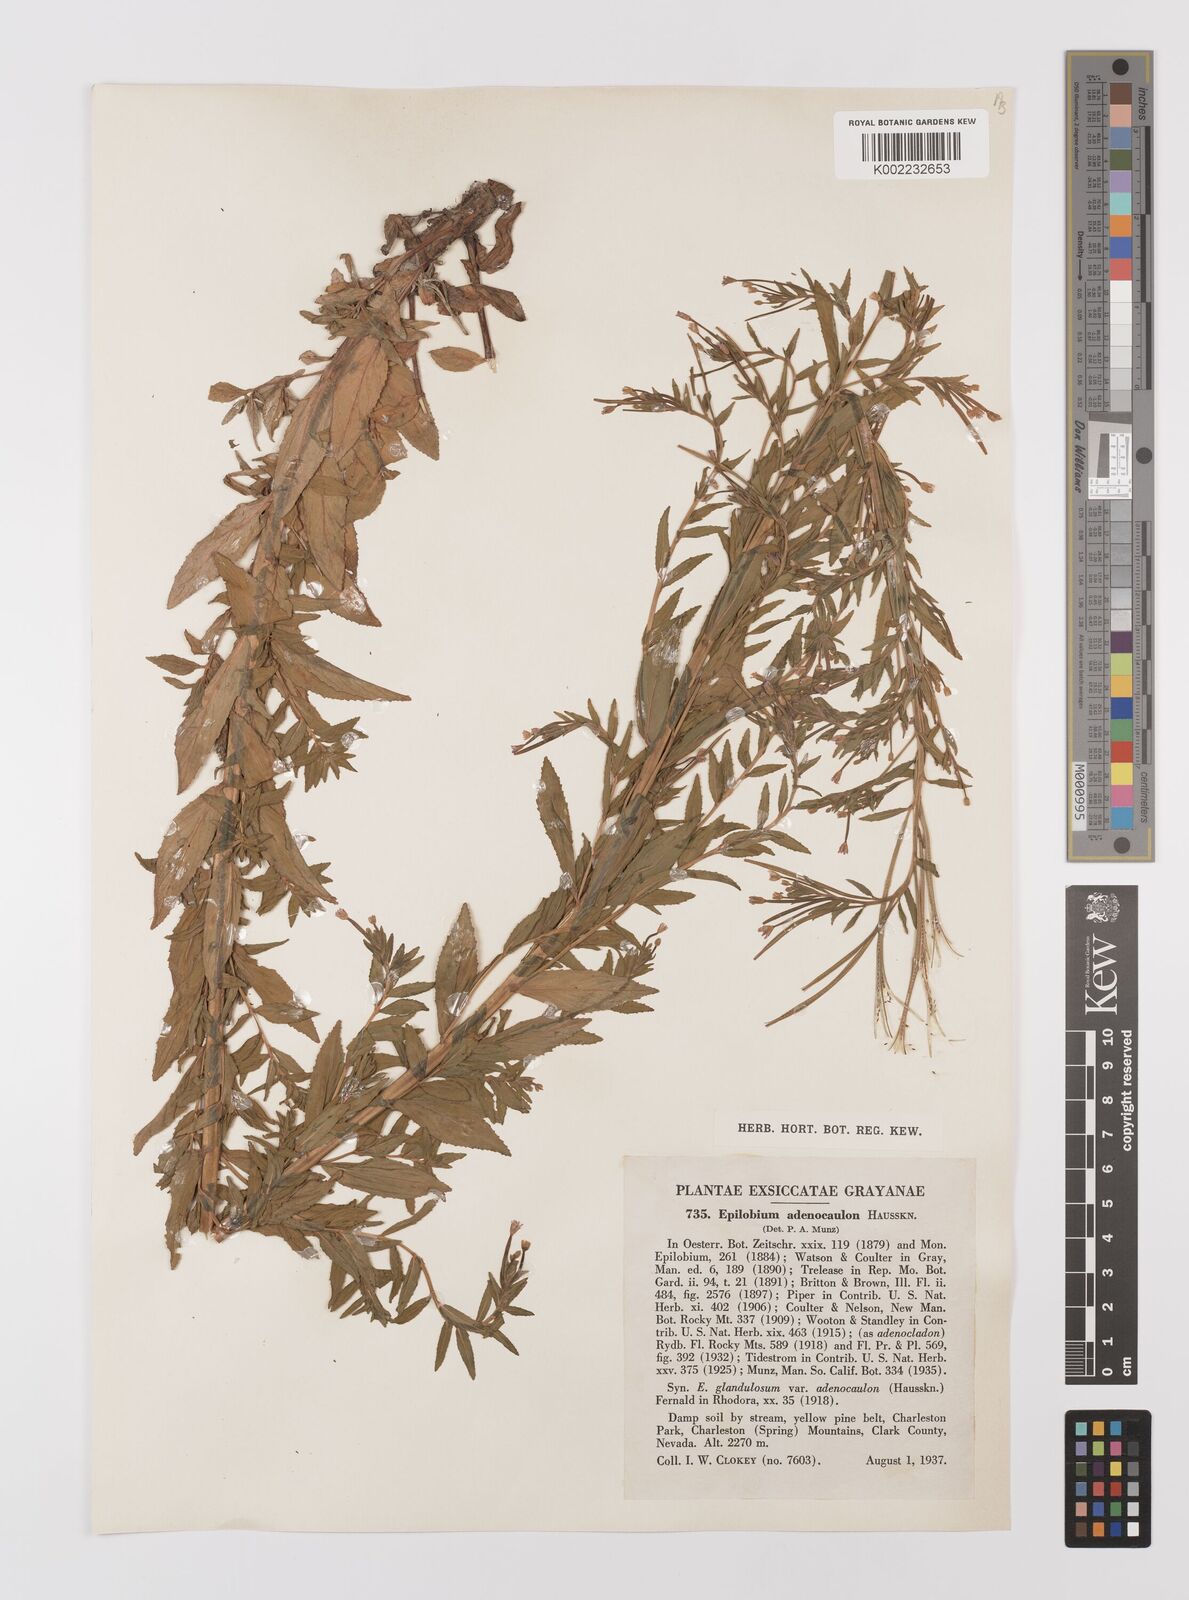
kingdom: Plantae
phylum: Tracheophyta
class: Magnoliopsida
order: Myrtales
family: Onagraceae
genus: Epilobium
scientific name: Epilobium ciliatum
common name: American willowherb
